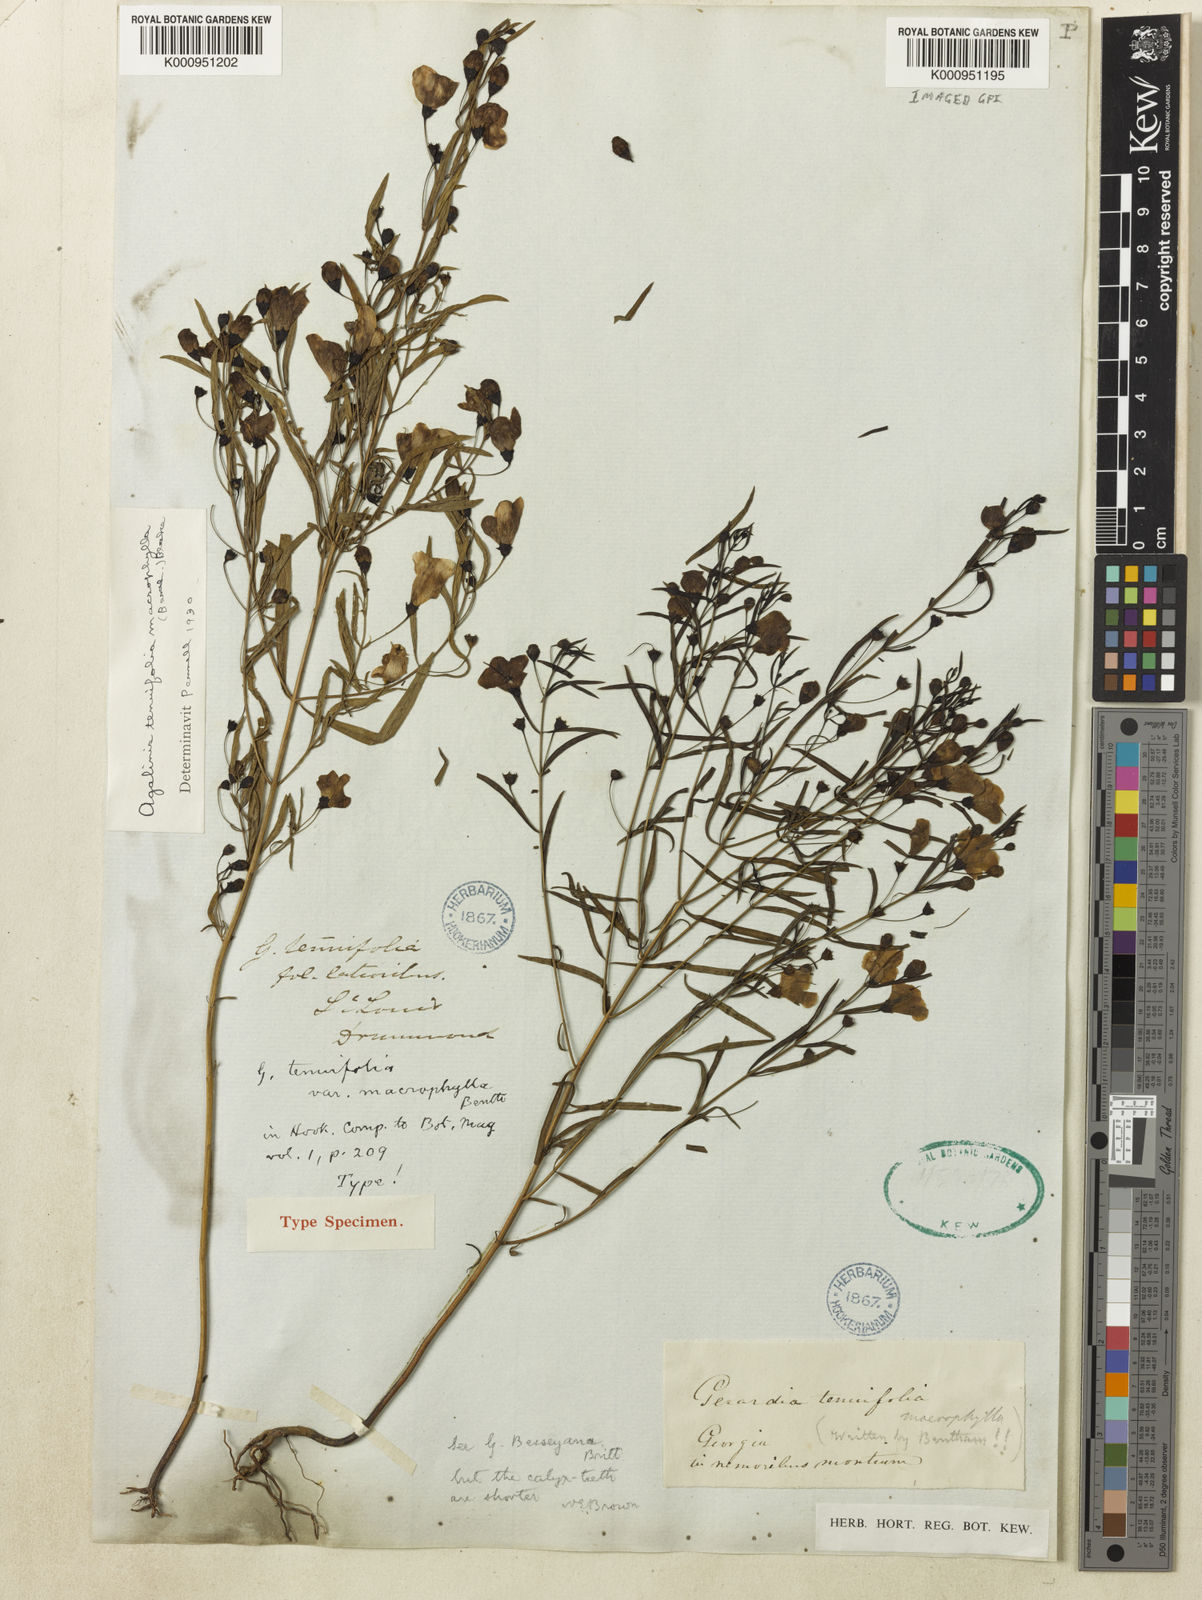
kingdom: Plantae
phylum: Tracheophyta
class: Magnoliopsida
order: Lamiales
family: Orobanchaceae
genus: Agalinis
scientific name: Agalinis tenuifolia
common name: Slender agalinis
